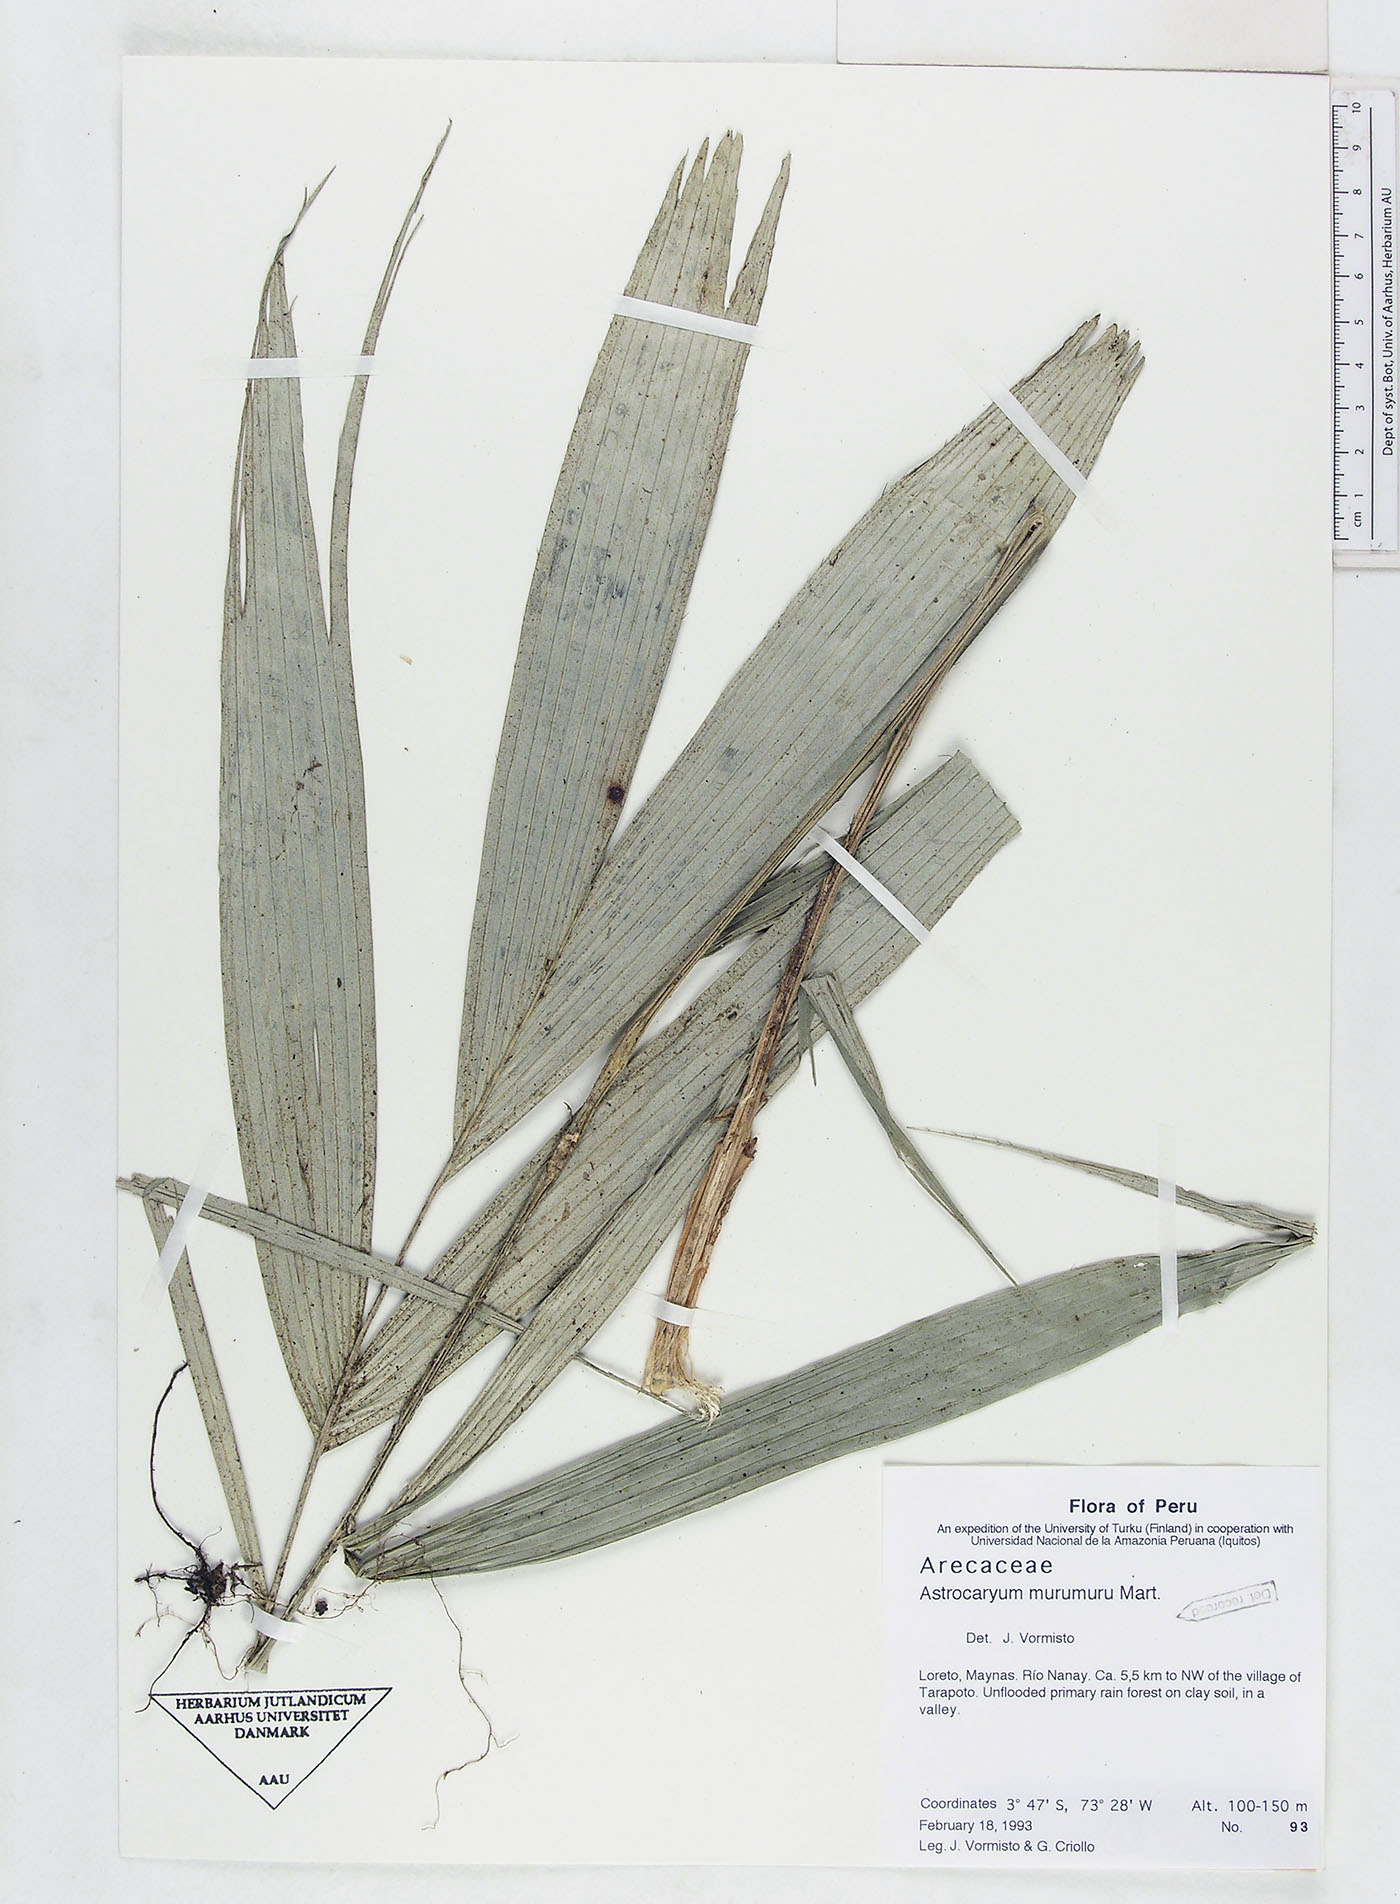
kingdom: Plantae
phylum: Tracheophyta
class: Liliopsida
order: Arecales
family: Arecaceae
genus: Astrocaryum
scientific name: Astrocaryum murumuru
